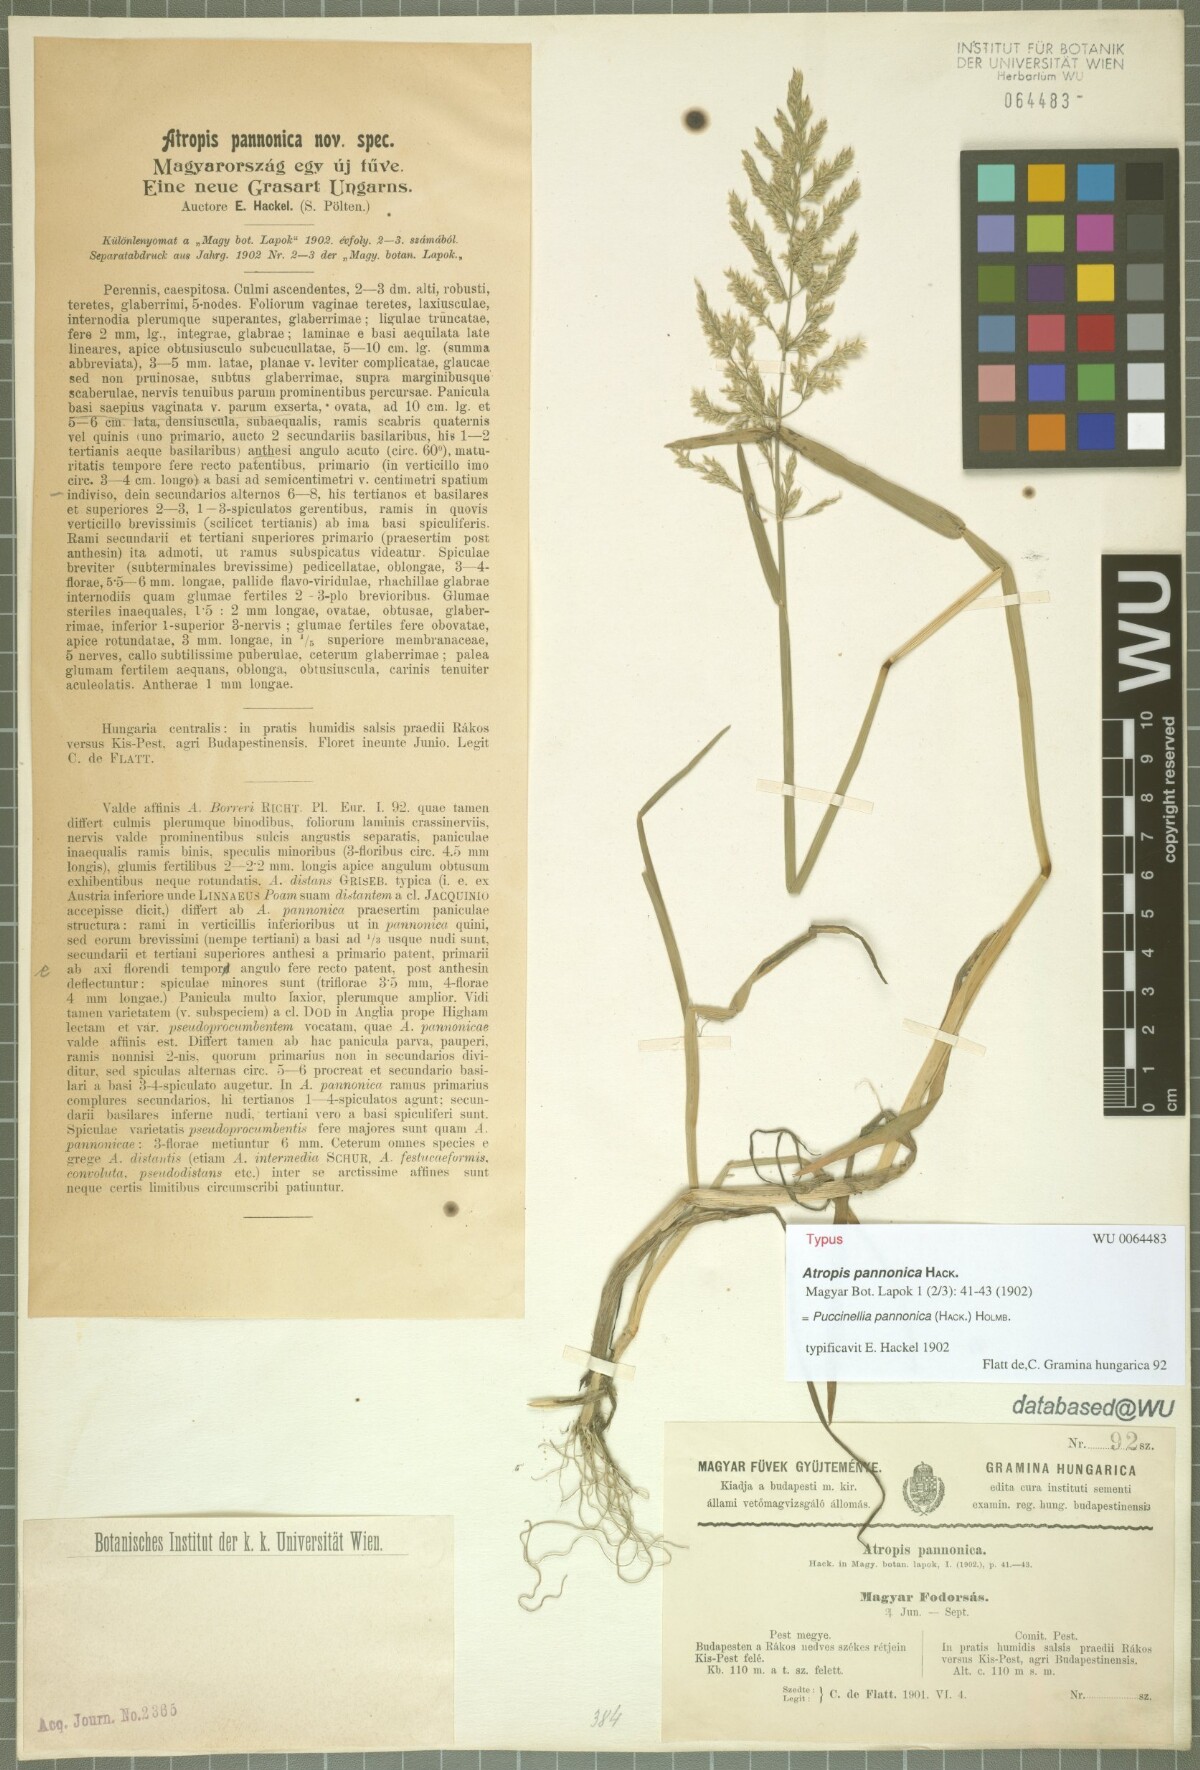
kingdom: Plantae
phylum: Tracheophyta
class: Liliopsida
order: Poales
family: Poaceae
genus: Puccinellia
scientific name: Puccinellia pannonica
